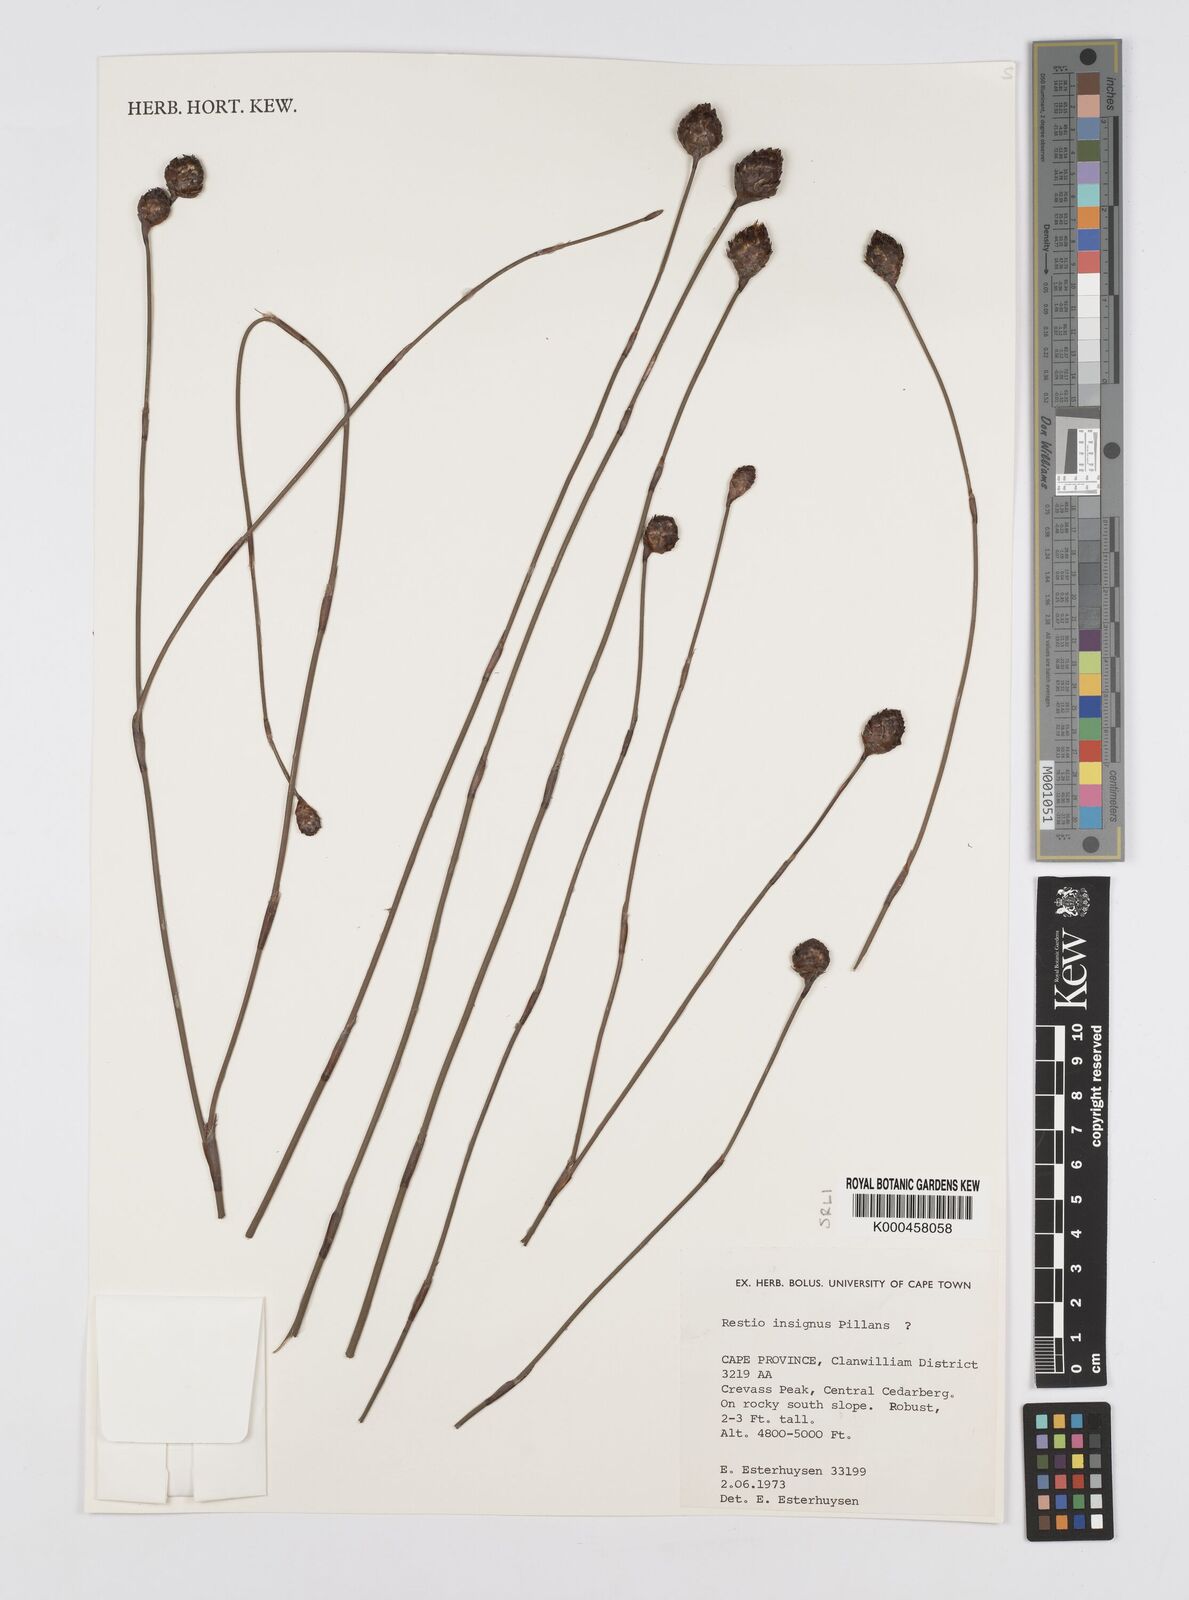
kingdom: Plantae
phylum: Tracheophyta
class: Liliopsida
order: Poales
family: Restionaceae
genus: Restio
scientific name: Restio insignis
